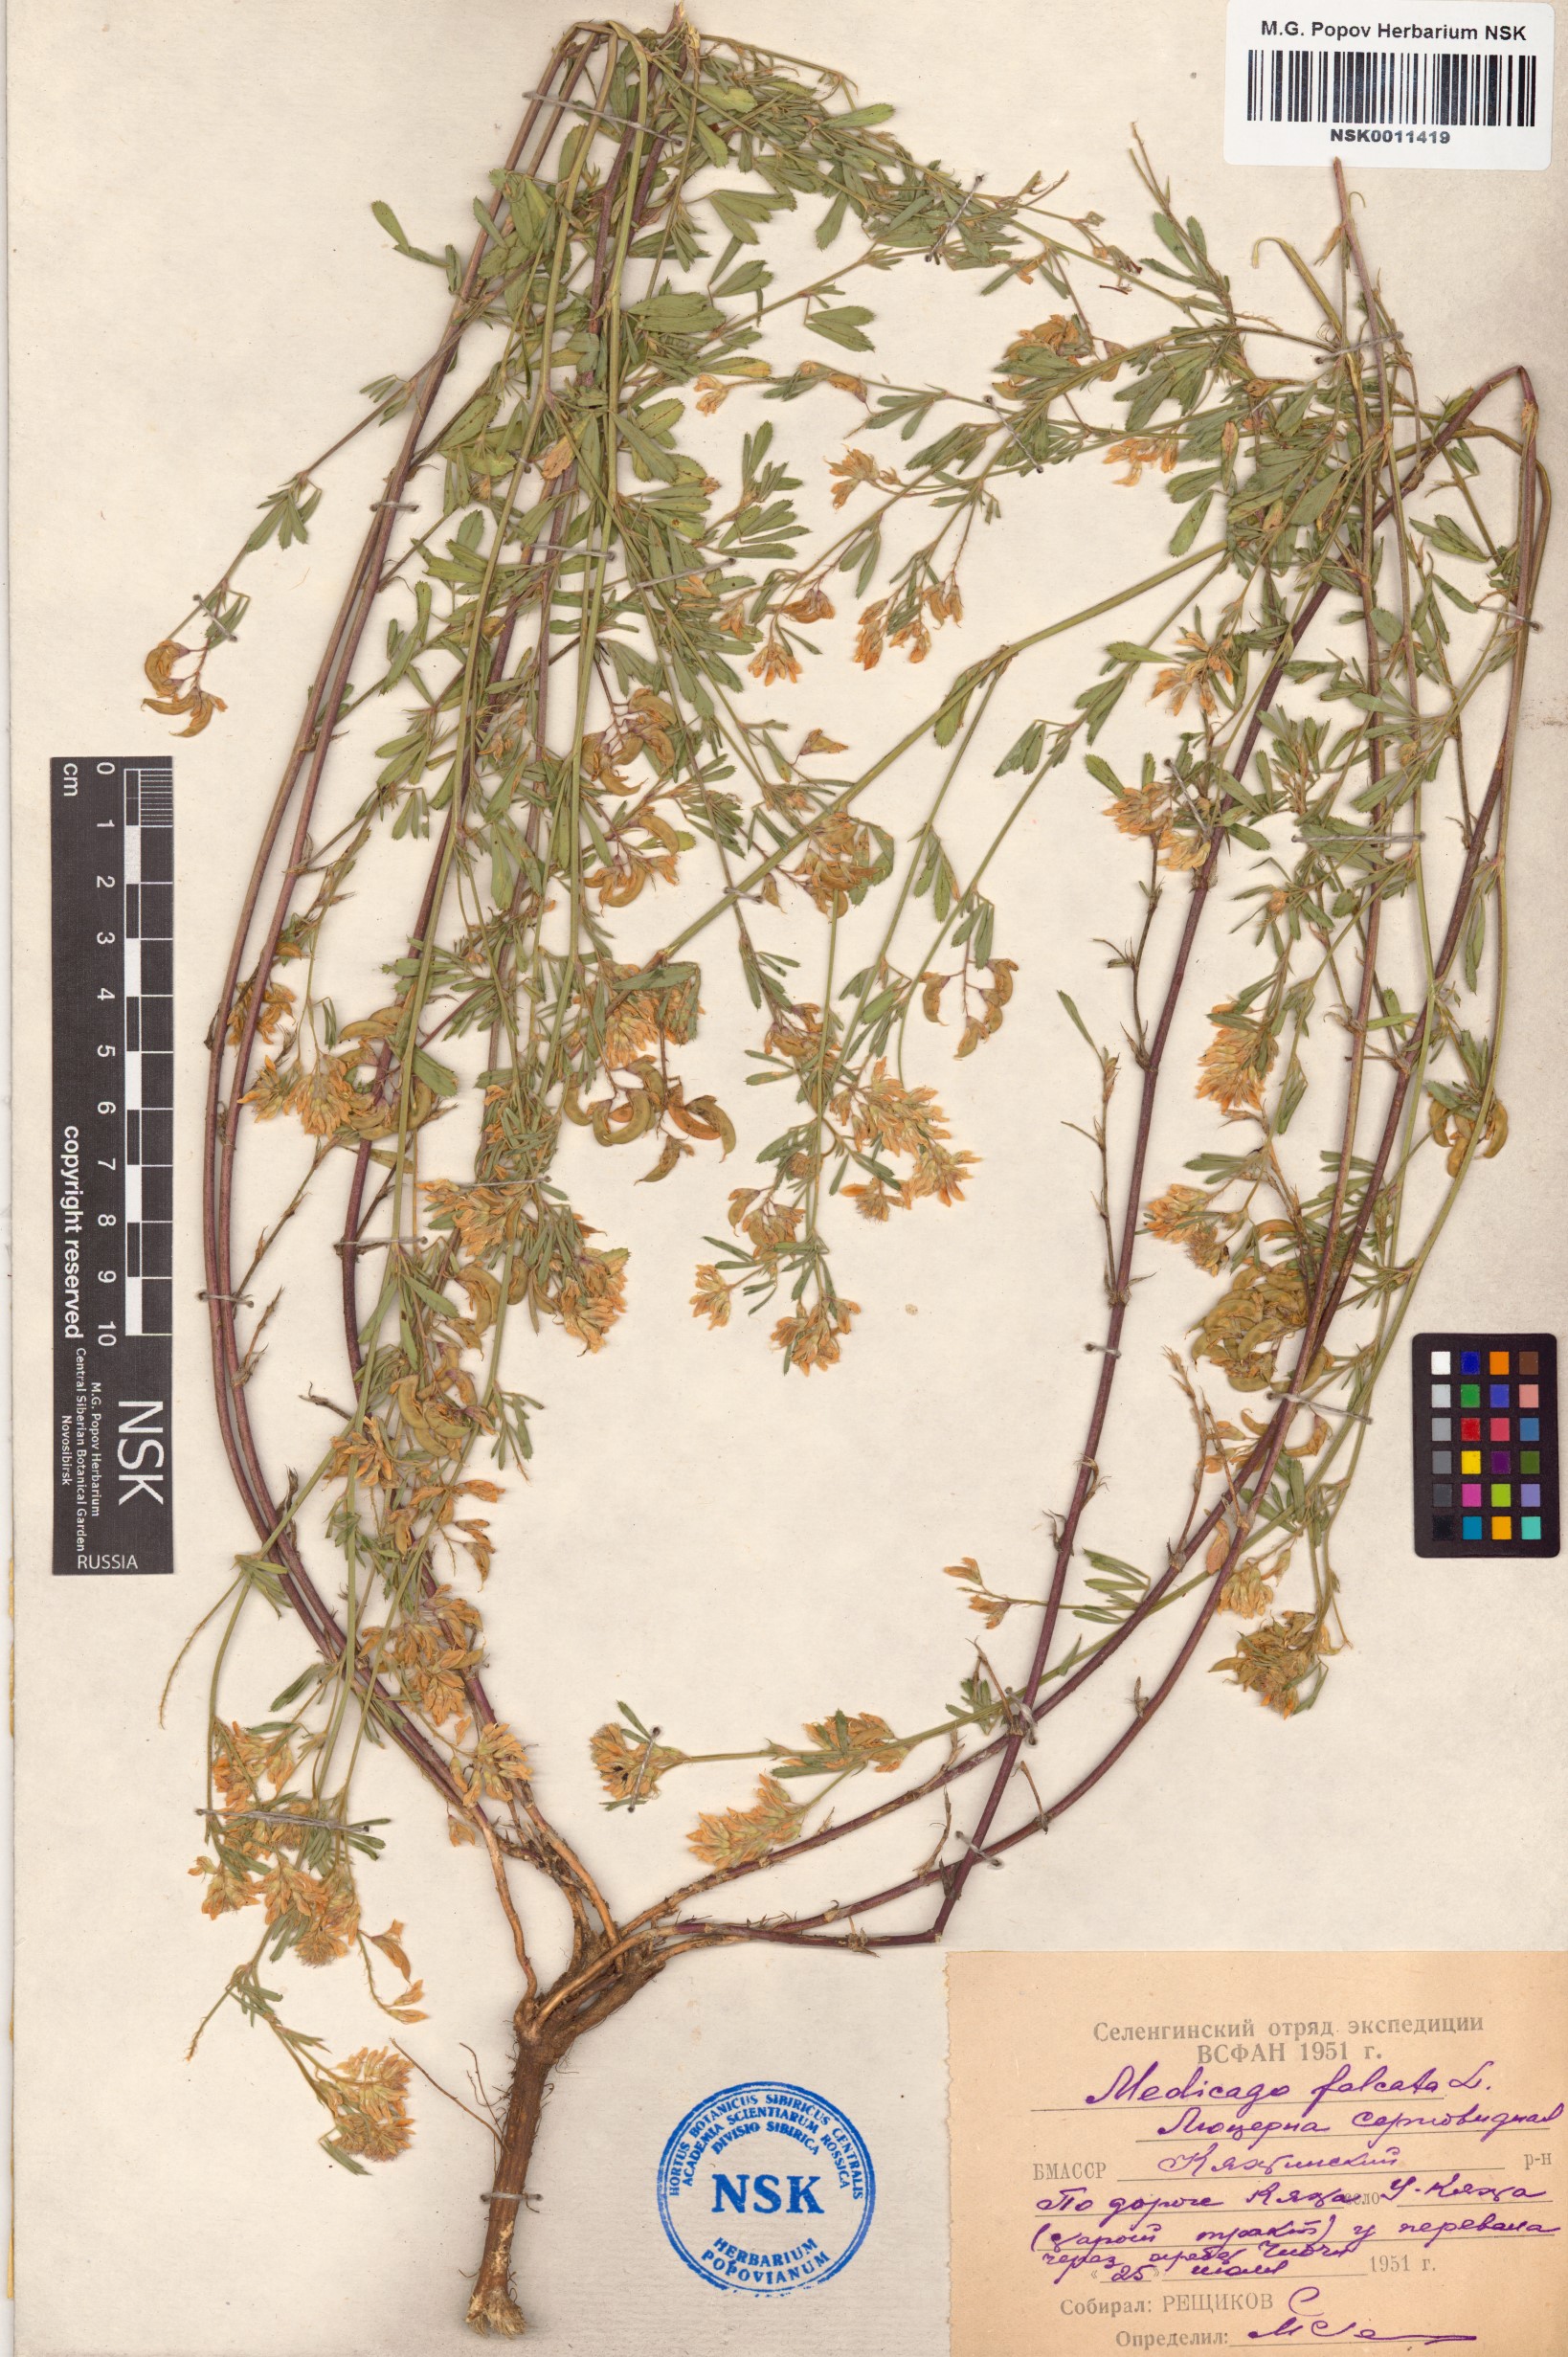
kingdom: Plantae
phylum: Tracheophyta
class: Magnoliopsida
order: Fabales
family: Fabaceae
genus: Medicago
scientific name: Medicago falcata
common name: Sickle medick
